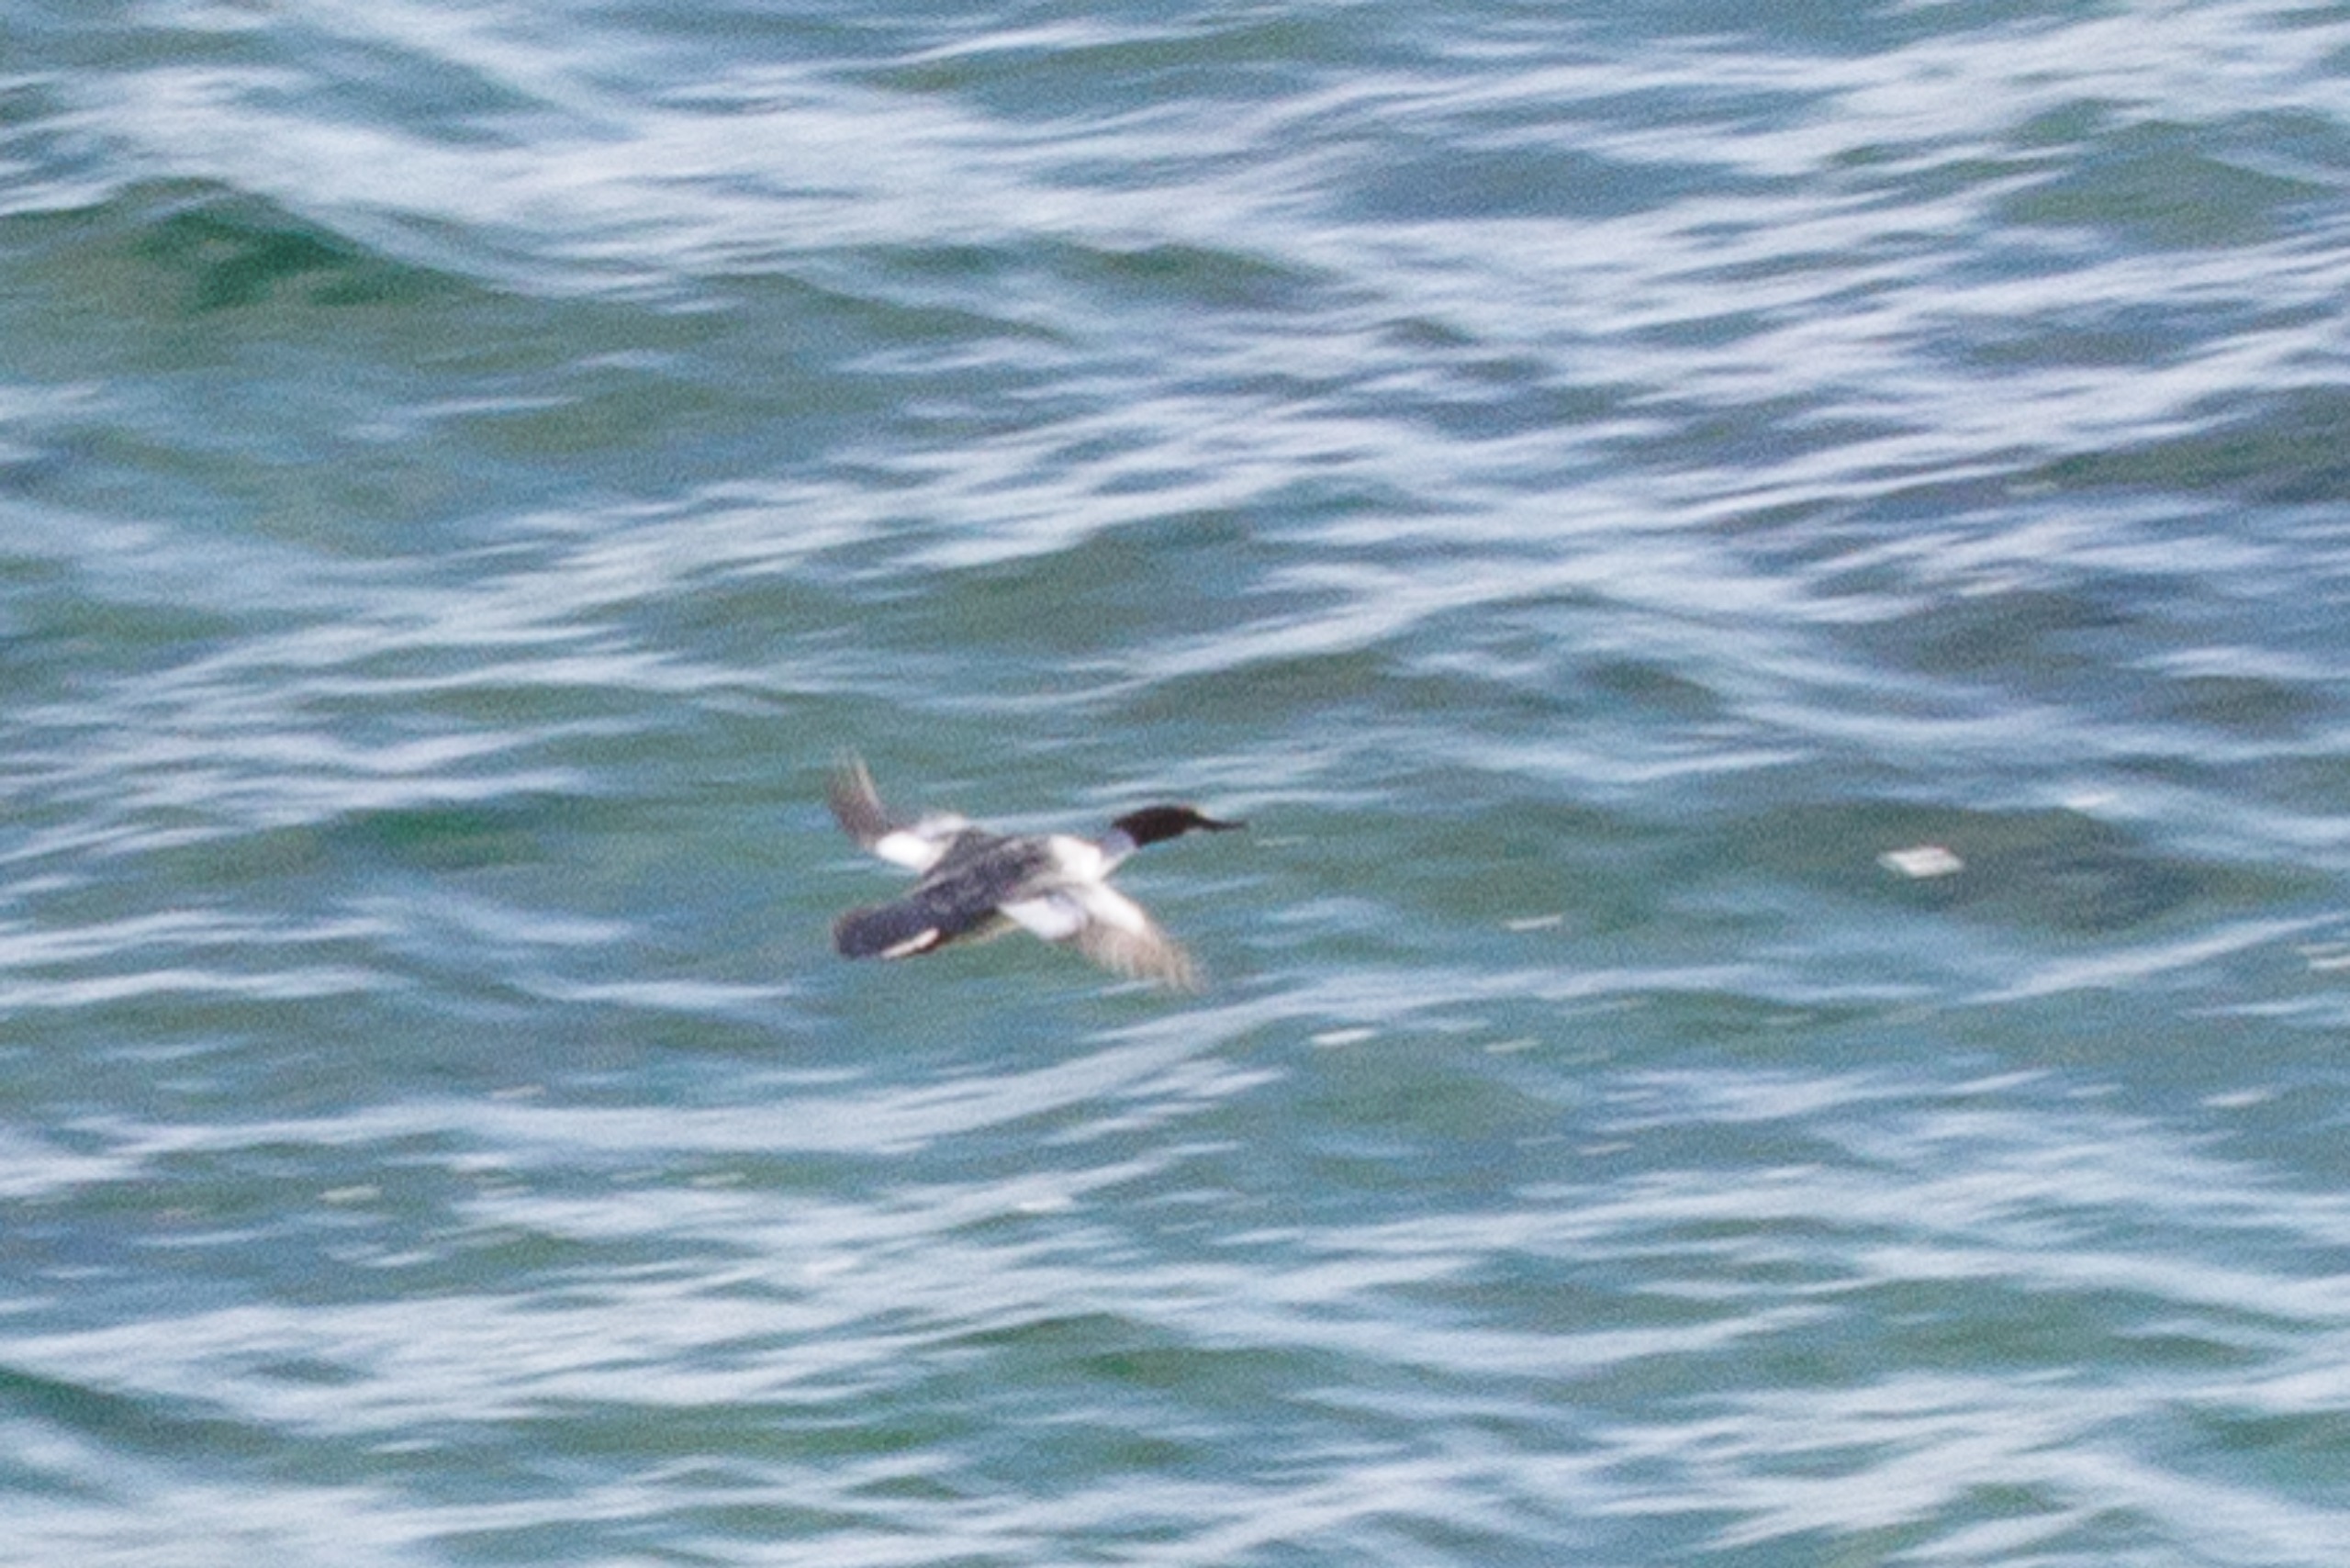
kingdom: Animalia
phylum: Chordata
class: Aves
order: Anseriformes
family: Anatidae
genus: Mergus
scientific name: Mergus merganser
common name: Stor skallesluger
